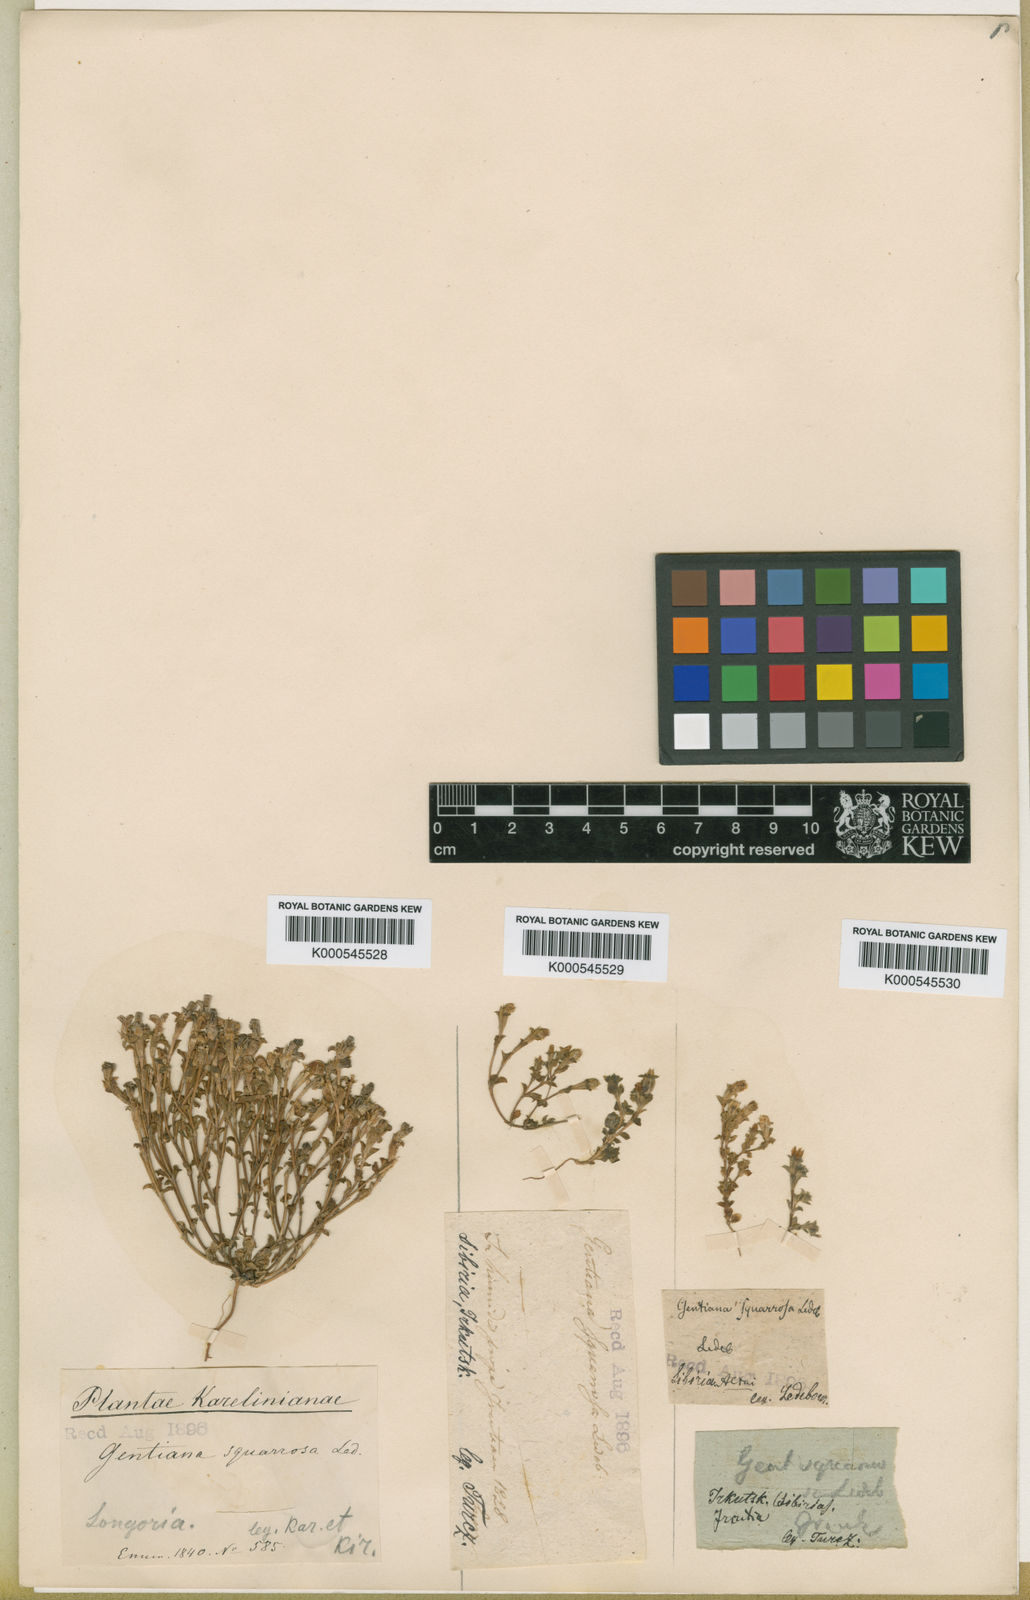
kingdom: Plantae
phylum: Tracheophyta
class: Magnoliopsida
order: Gentianales
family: Gentianaceae
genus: Gentiana
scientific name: Gentiana squarrosa
